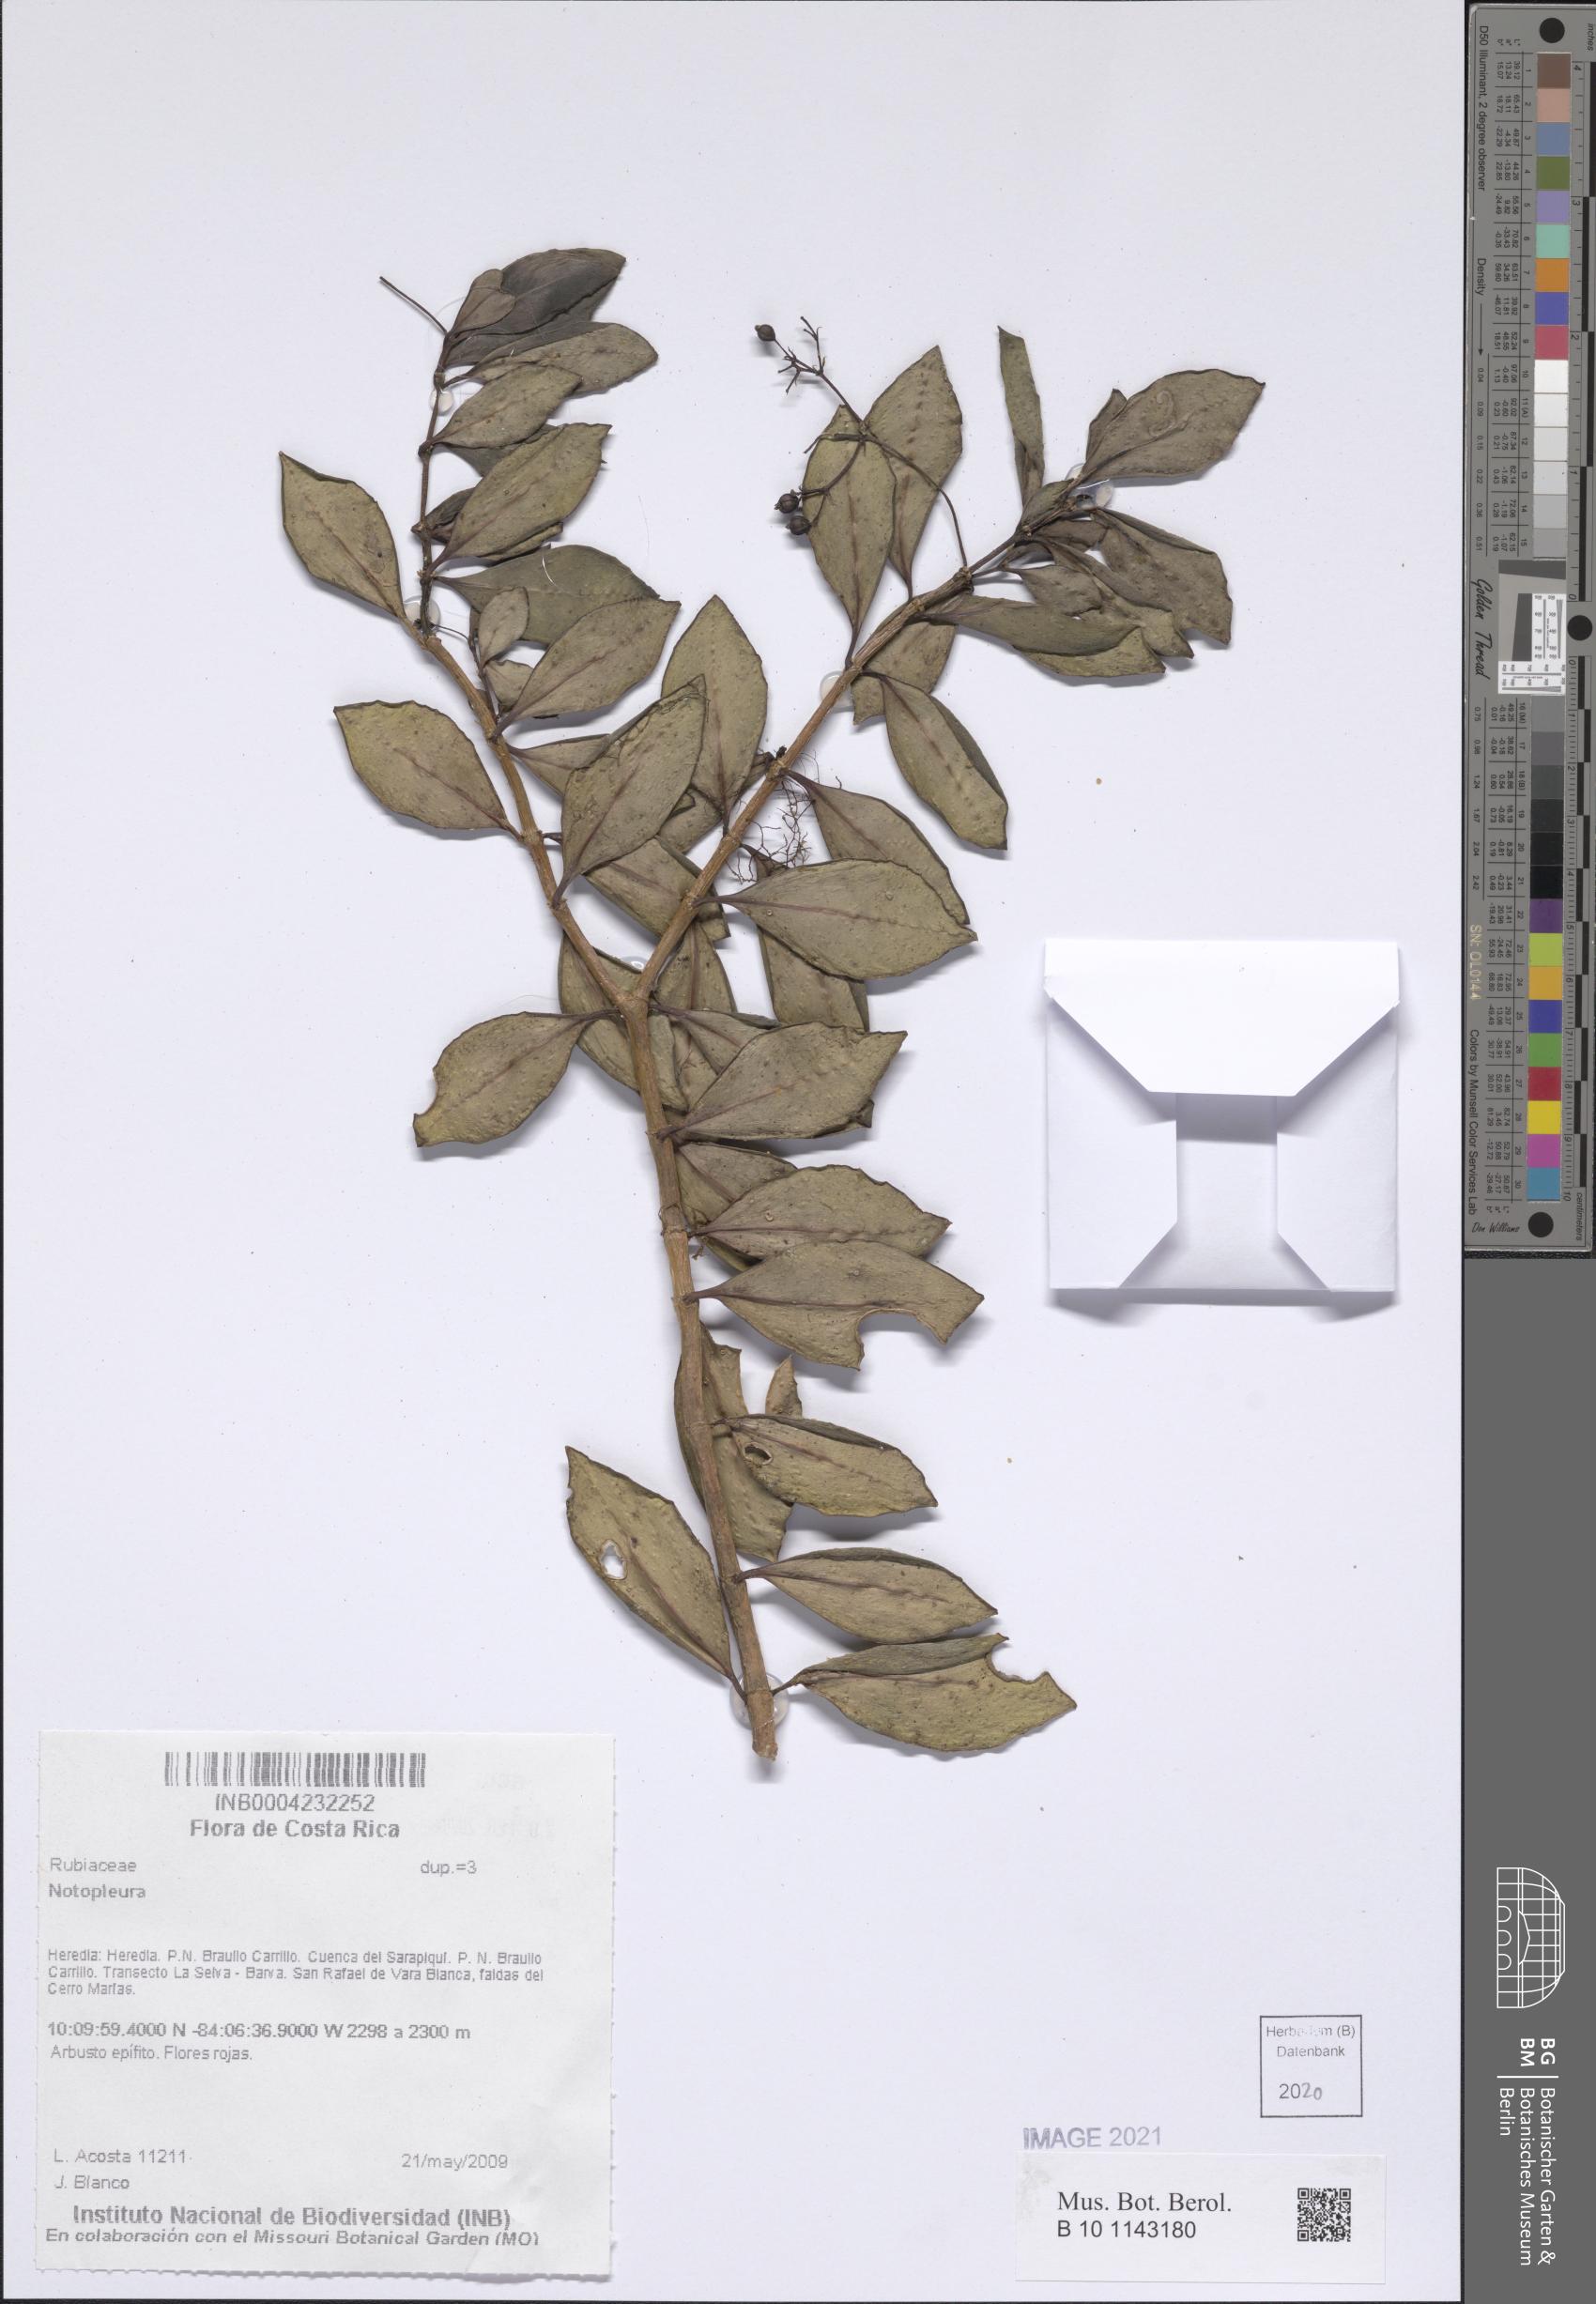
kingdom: Plantae
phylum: Tracheophyta
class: Magnoliopsida
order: Gentianales
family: Rubiaceae
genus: Notopleura
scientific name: Notopleura
